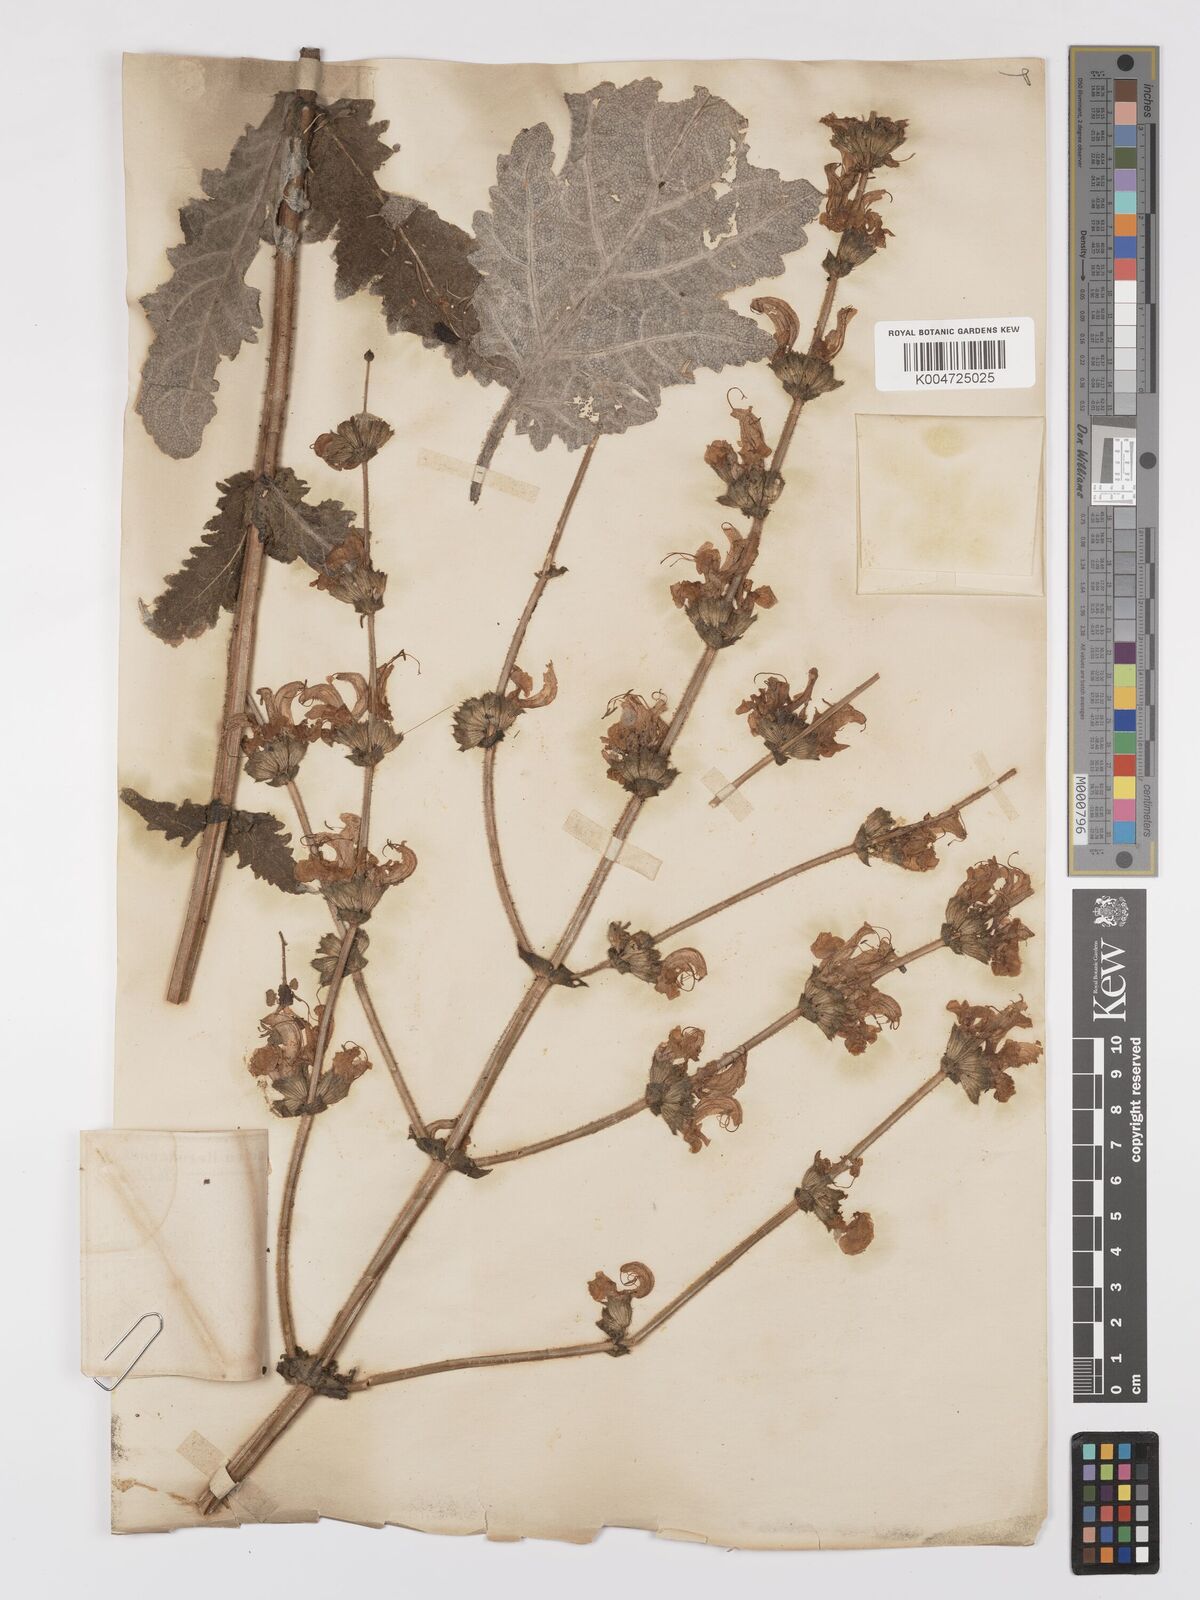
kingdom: Plantae
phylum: Tracheophyta
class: Magnoliopsida
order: Lamiales
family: Lamiaceae
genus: Salvia
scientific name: Salvia verbascifolia
